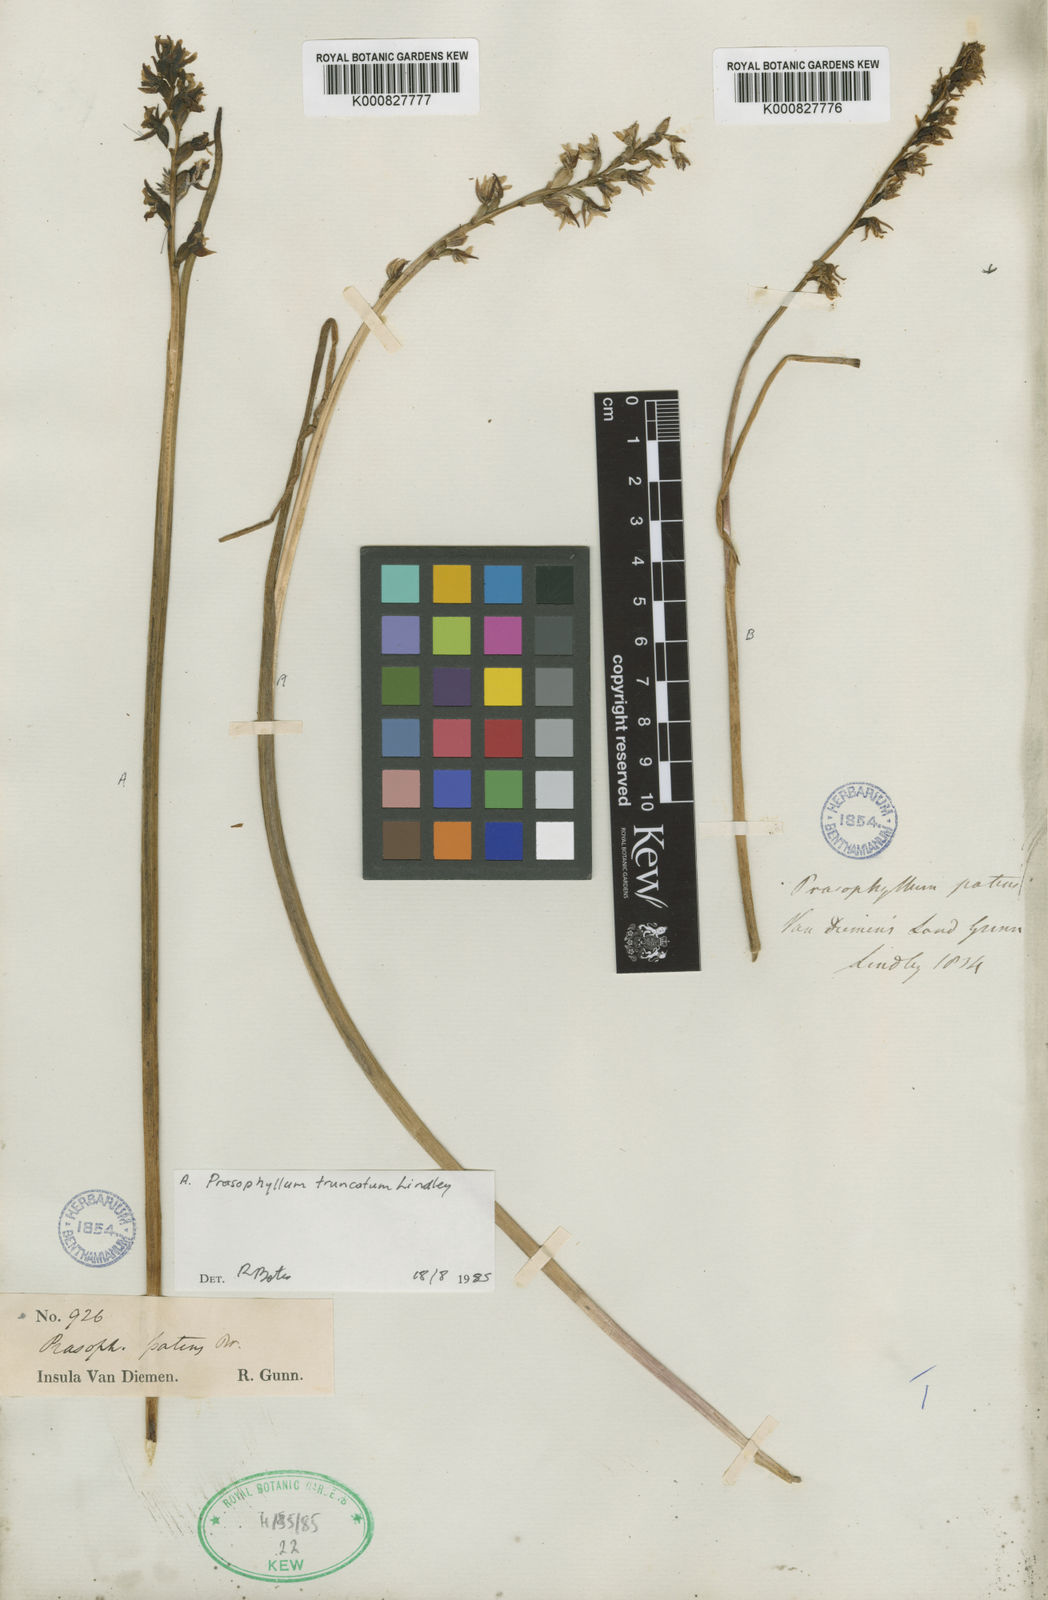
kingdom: Plantae
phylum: Tracheophyta
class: Liliopsida
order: Asparagales
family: Orchidaceae
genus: Prasophyllum
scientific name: Prasophyllum truncatum
